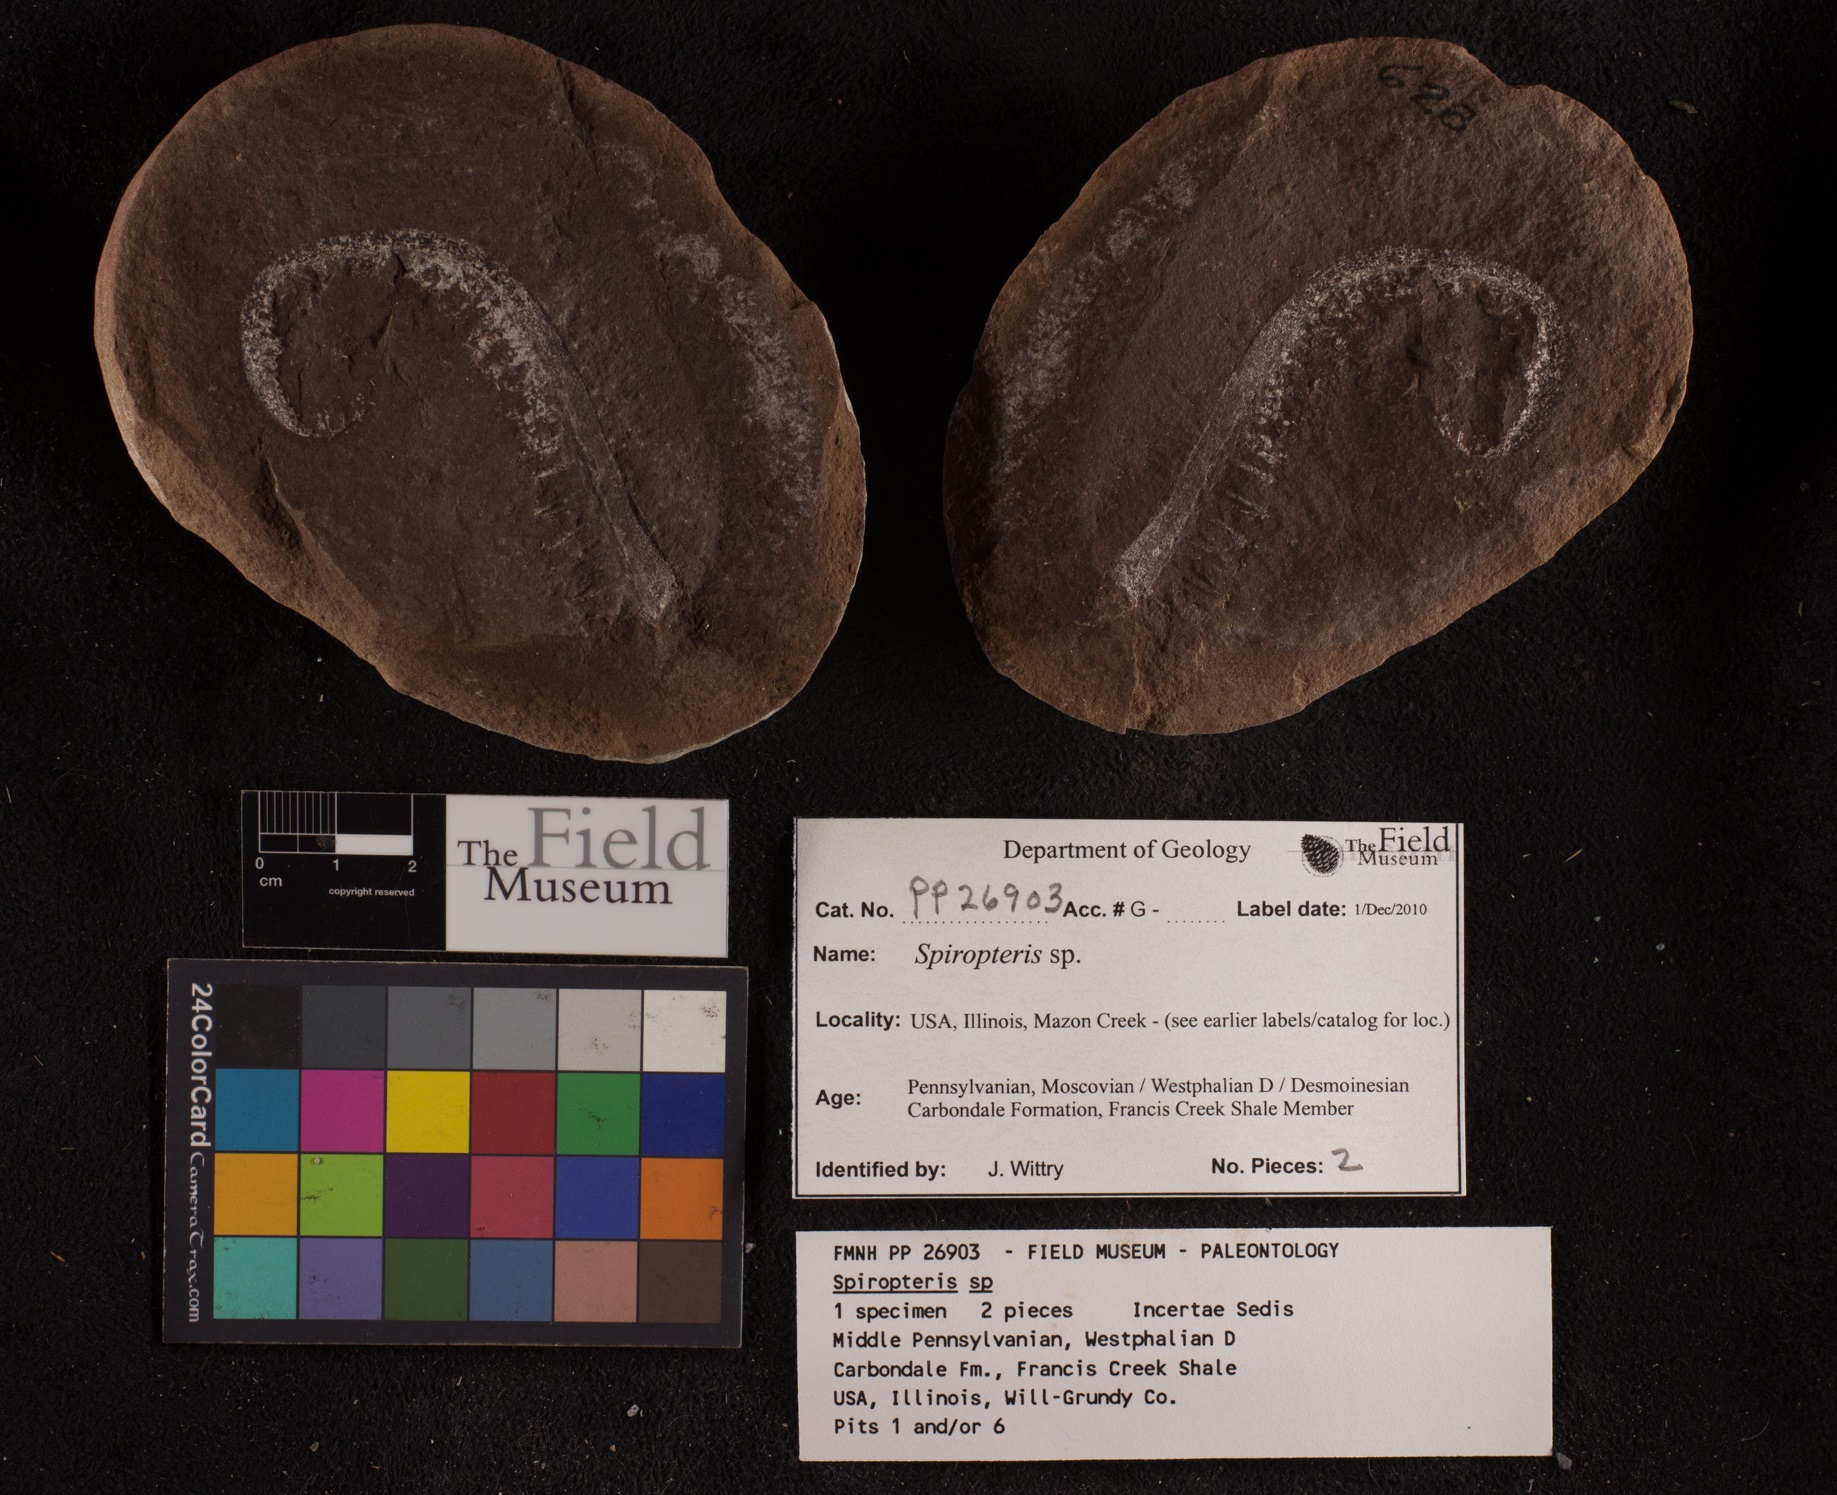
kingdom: Plantae
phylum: Tracheophyta
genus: Spiropteris
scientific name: Spiropteris
